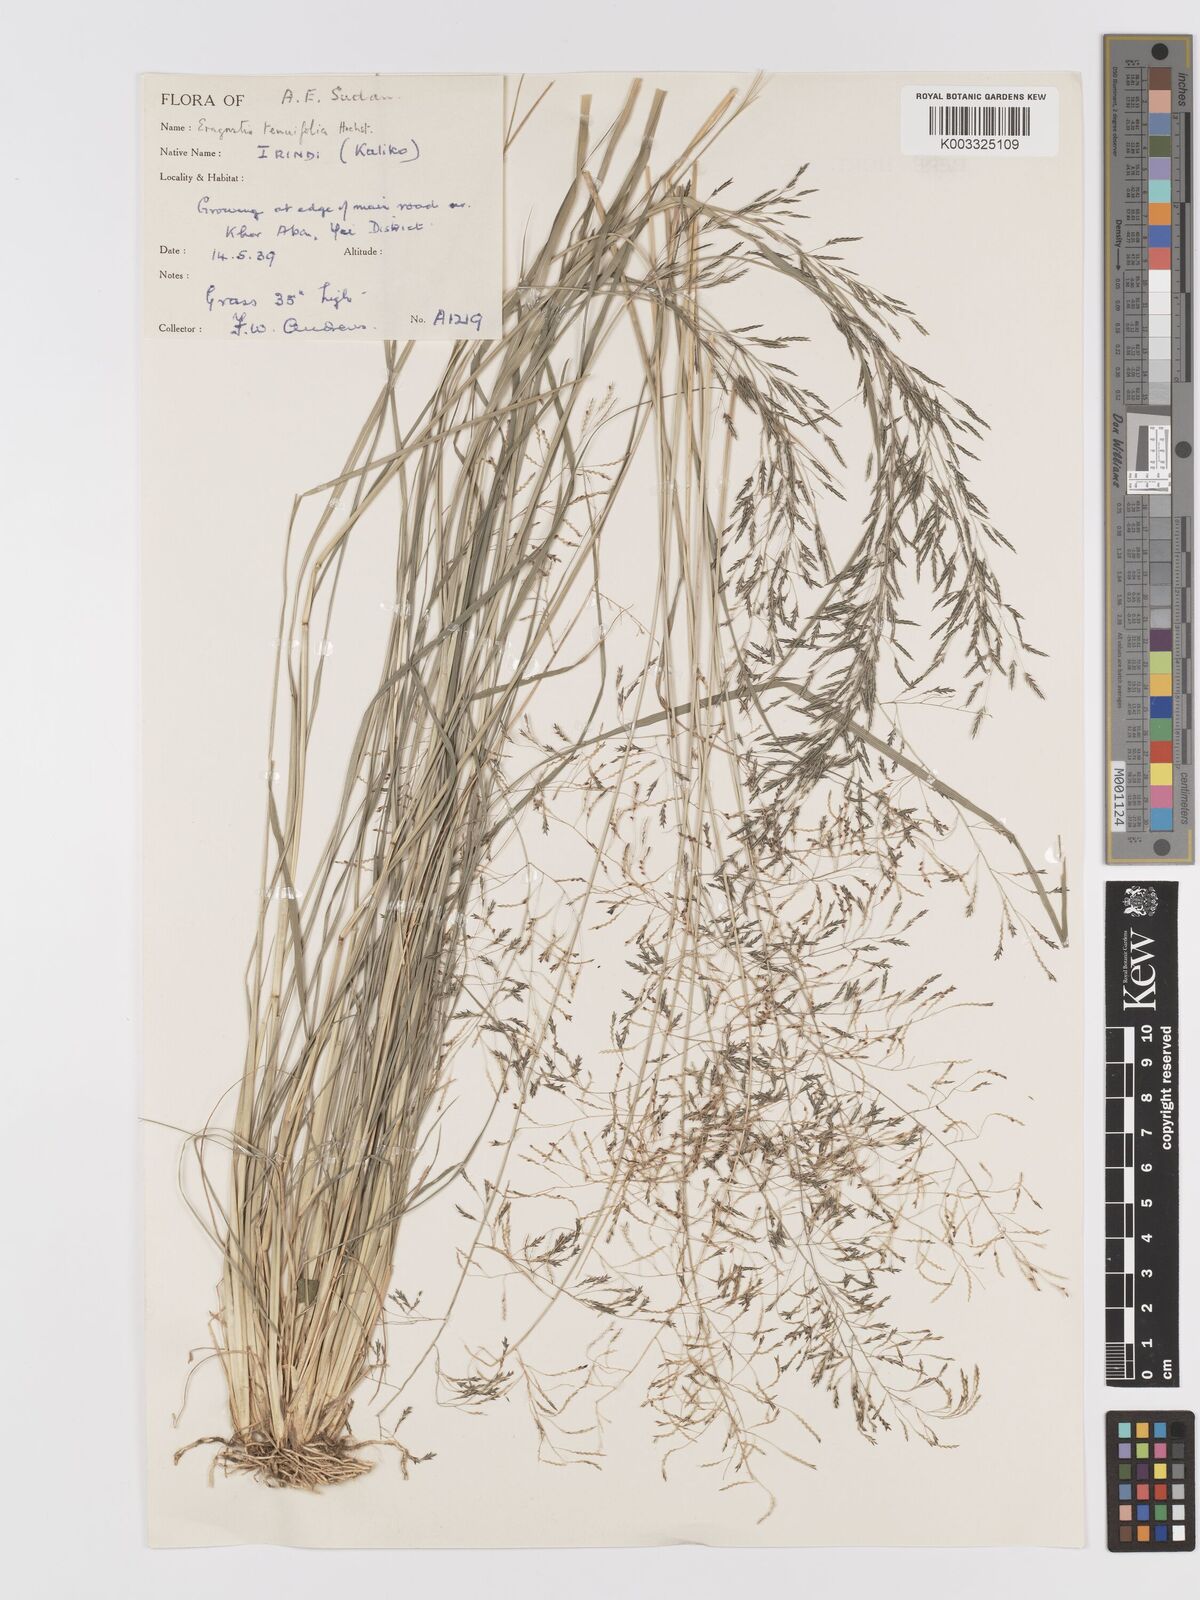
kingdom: Plantae
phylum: Tracheophyta
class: Liliopsida
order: Poales
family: Poaceae
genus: Eragrostis
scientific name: Eragrostis tenuifolia
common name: Elastic grass
